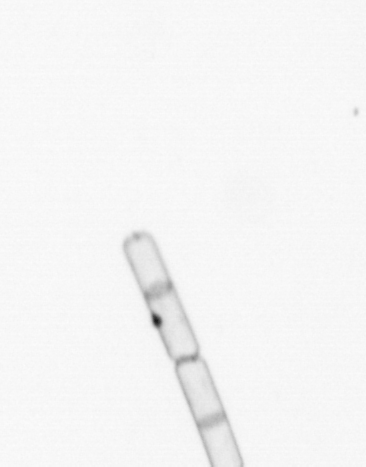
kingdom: Chromista
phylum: Ochrophyta
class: Bacillariophyceae
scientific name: Bacillariophyceae
